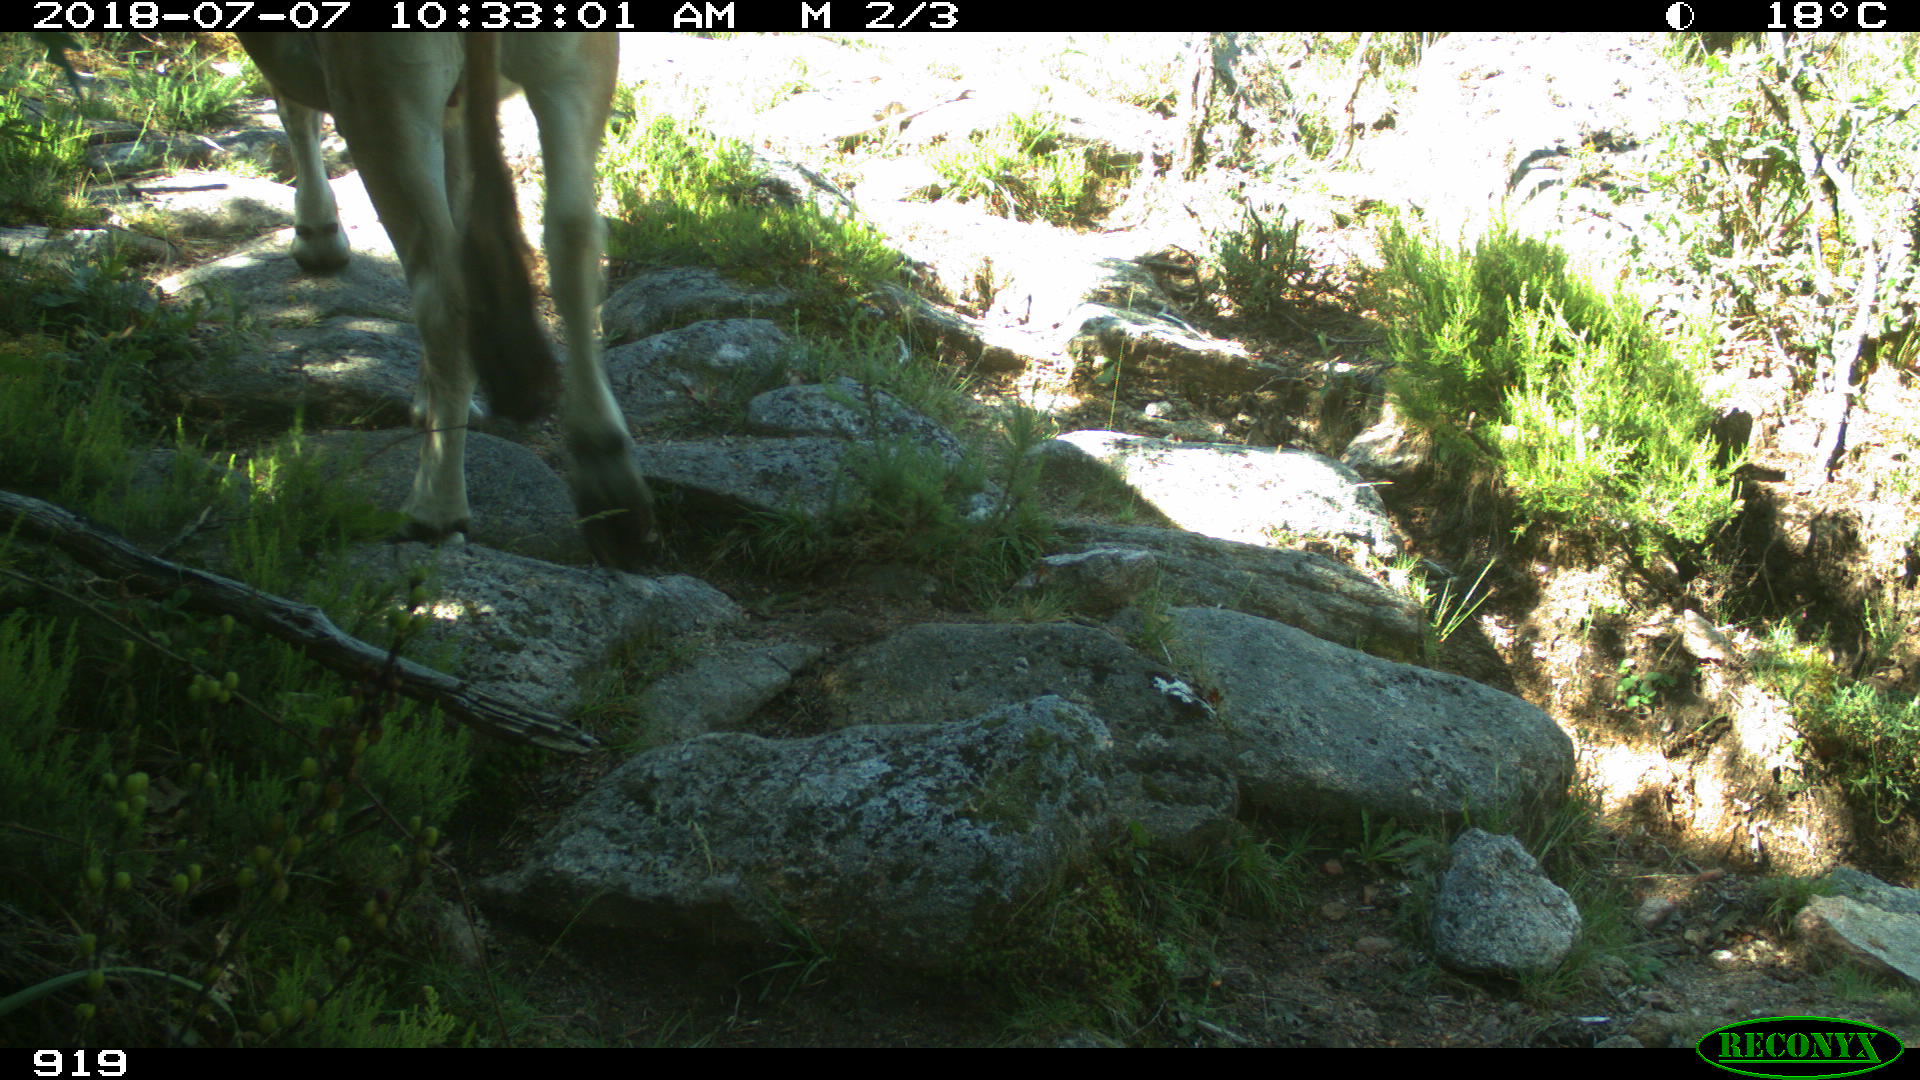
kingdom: Animalia
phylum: Chordata
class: Mammalia
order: Artiodactyla
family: Bovidae
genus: Bos
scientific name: Bos taurus
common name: Domesticated cattle
